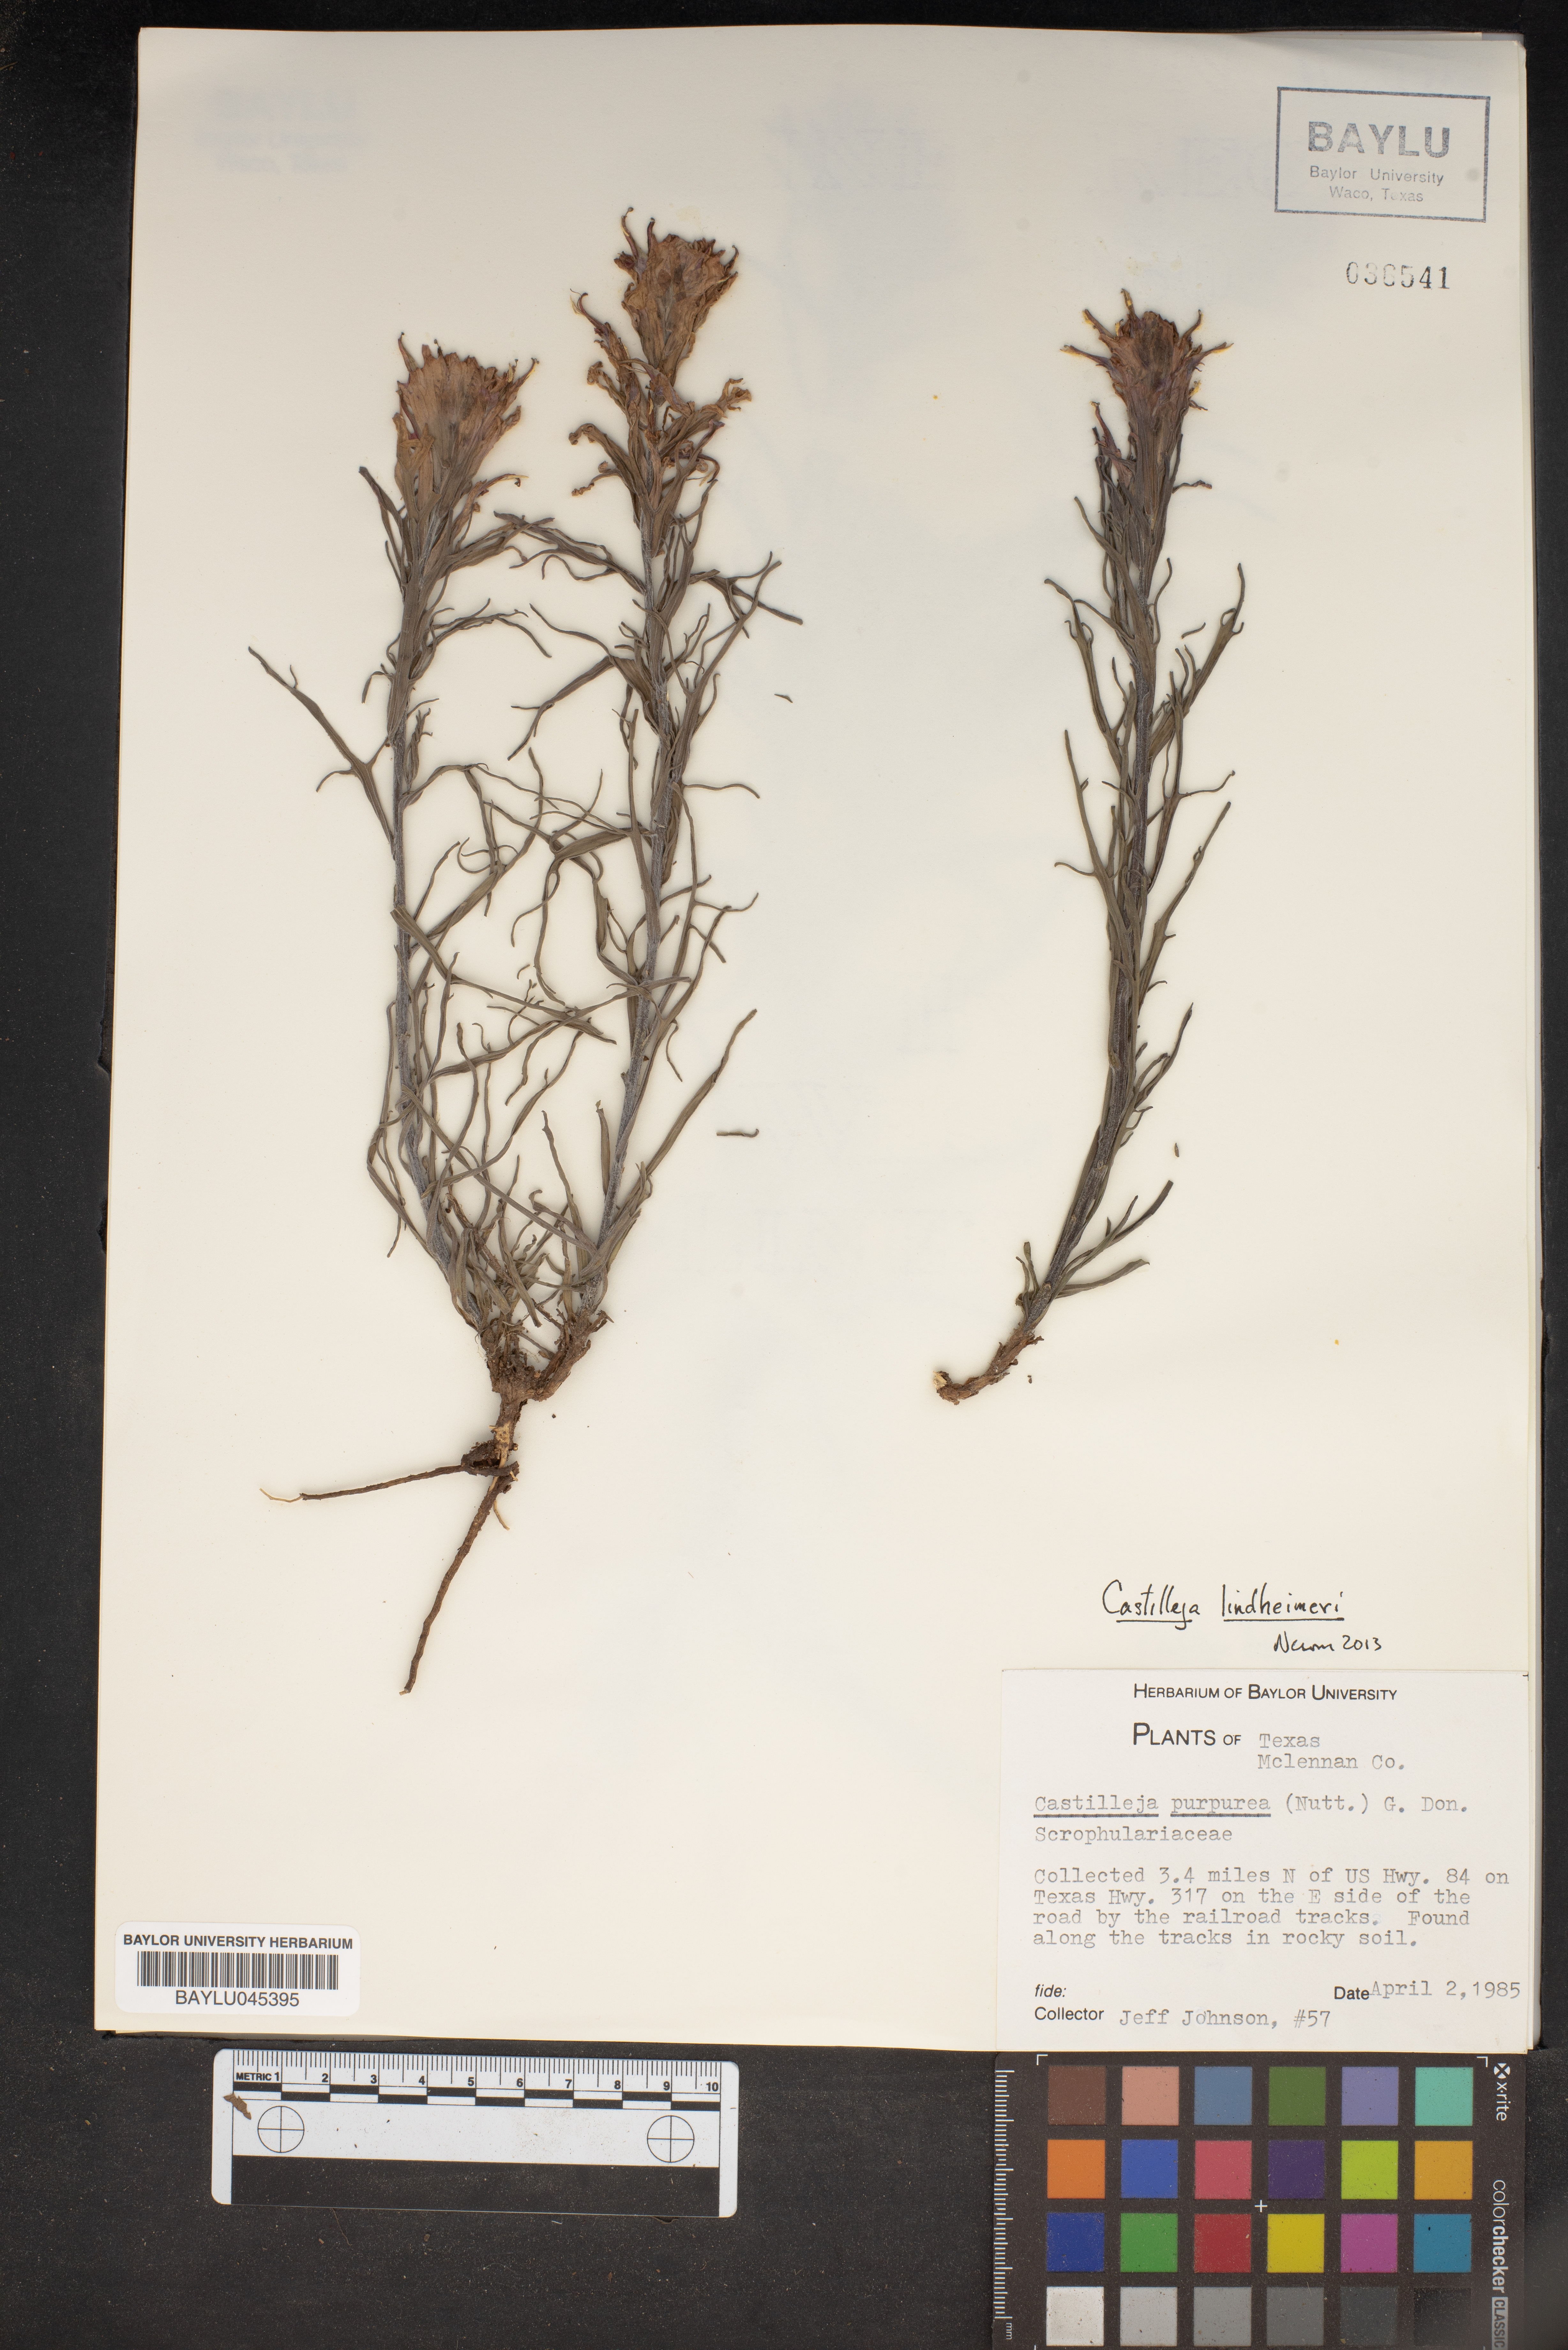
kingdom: Plantae
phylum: Tracheophyta
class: Magnoliopsida
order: Lamiales
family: Orobanchaceae
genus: Castilleja
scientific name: Castilleja purpurea
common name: Plains paintbrush
